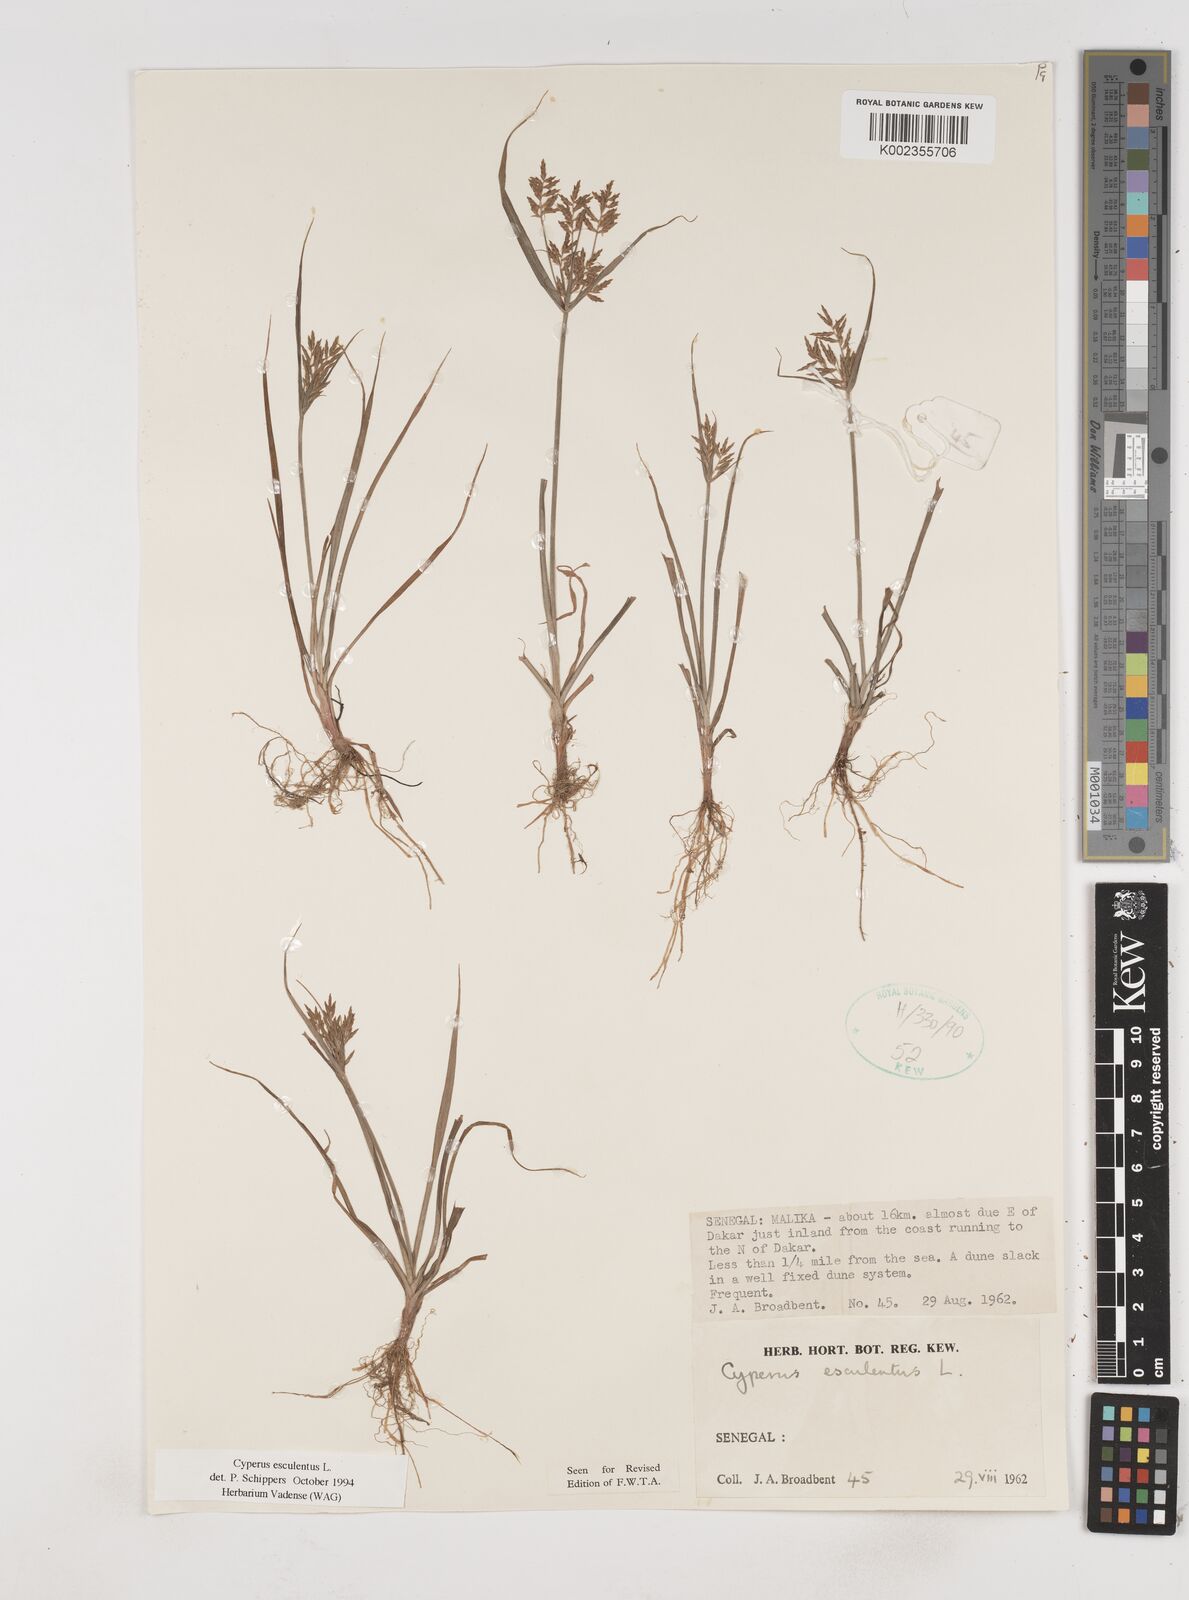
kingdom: Plantae
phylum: Tracheophyta
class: Liliopsida
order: Poales
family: Cyperaceae
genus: Cyperus
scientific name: Cyperus esculentus
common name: Yellow nutsedge
